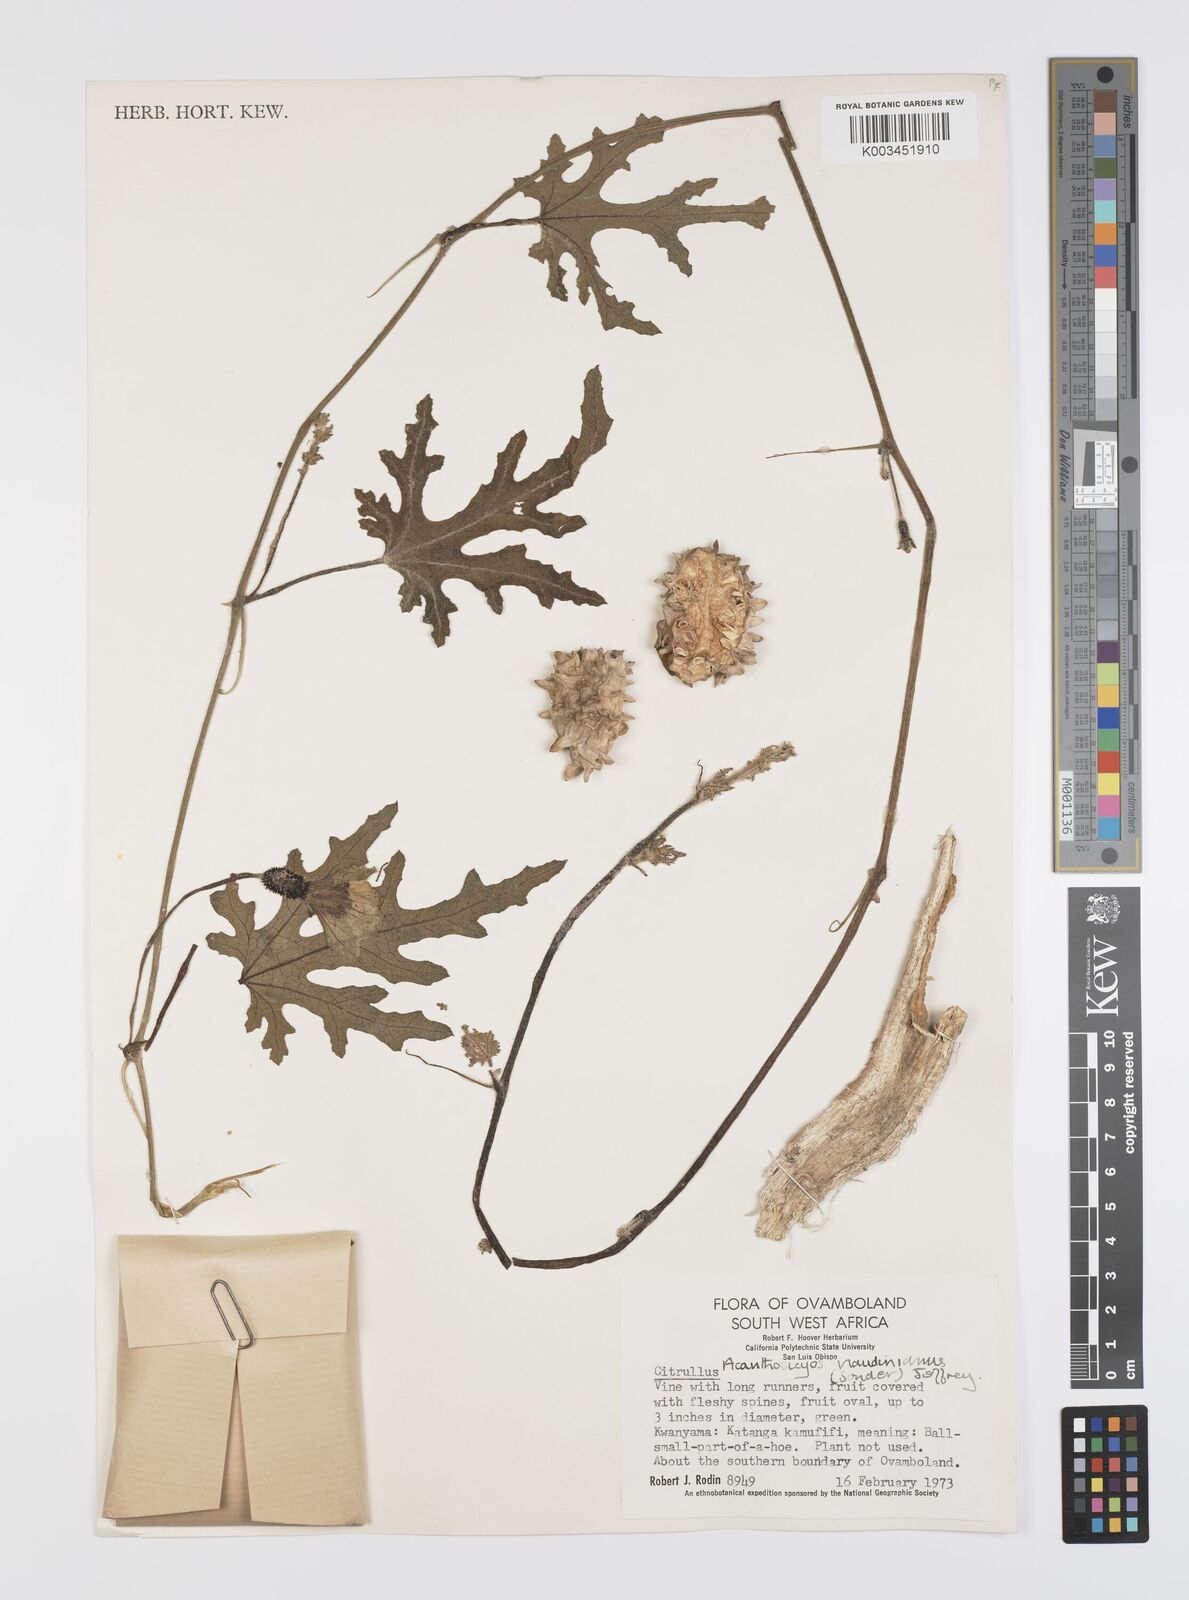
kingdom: Plantae
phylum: Tracheophyta
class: Magnoliopsida
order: Cucurbitales
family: Cucurbitaceae
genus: Citrullus
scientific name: Citrullus naudinianus
